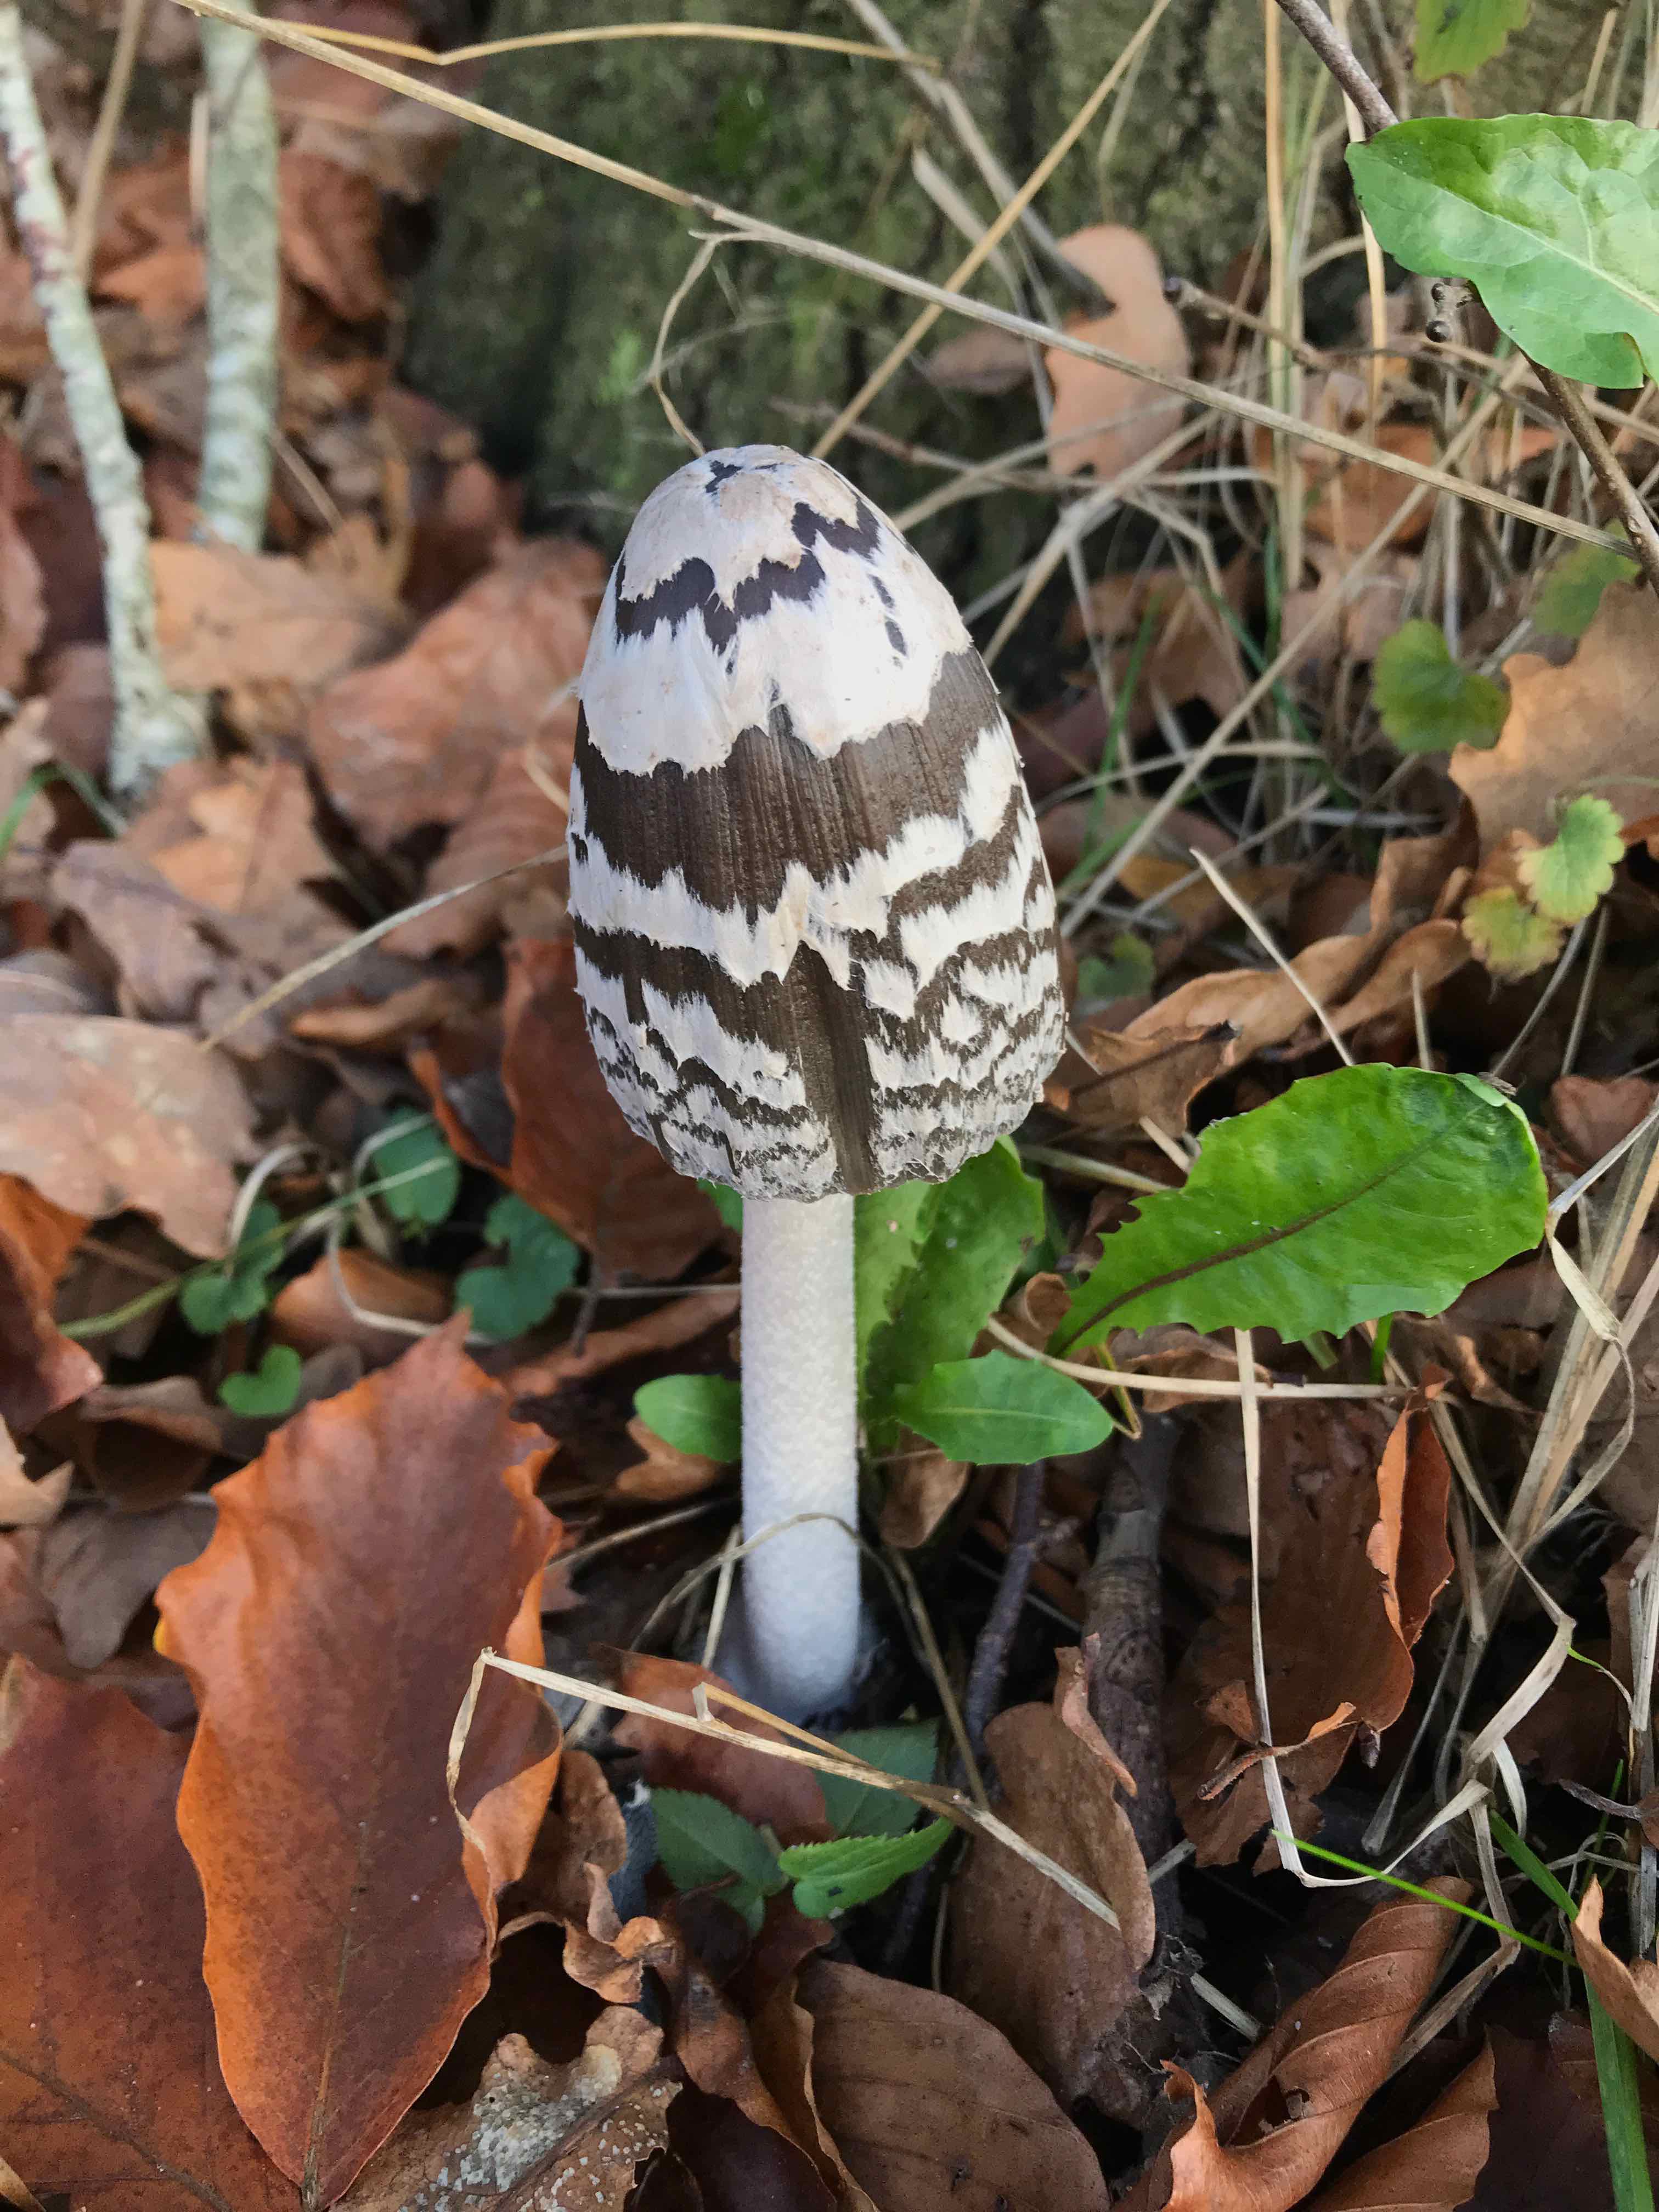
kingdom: Fungi
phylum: Basidiomycota
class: Agaricomycetes
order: Agaricales
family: Psathyrellaceae
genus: Coprinopsis
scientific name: Coprinopsis picacea
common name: skade-blækhat
